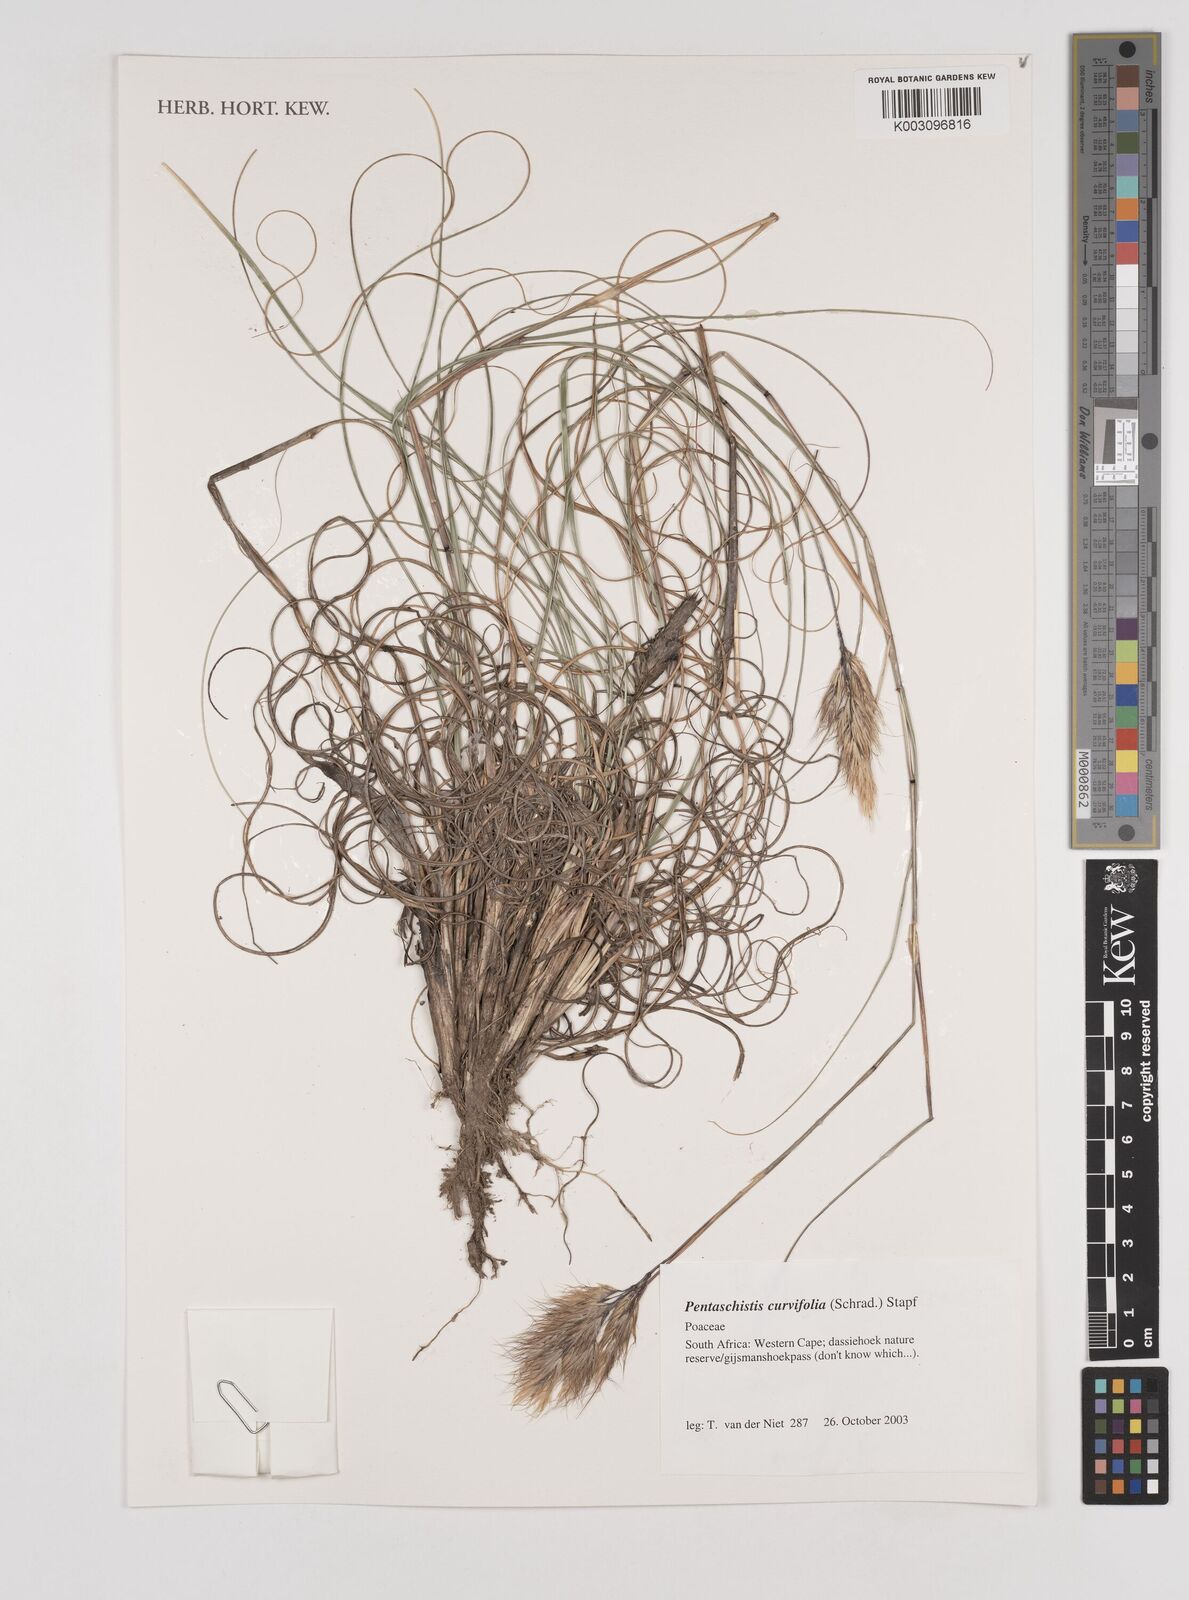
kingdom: Plantae
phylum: Tracheophyta
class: Liliopsida
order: Poales
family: Poaceae
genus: Pentameris
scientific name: Pentameris curvifolia
